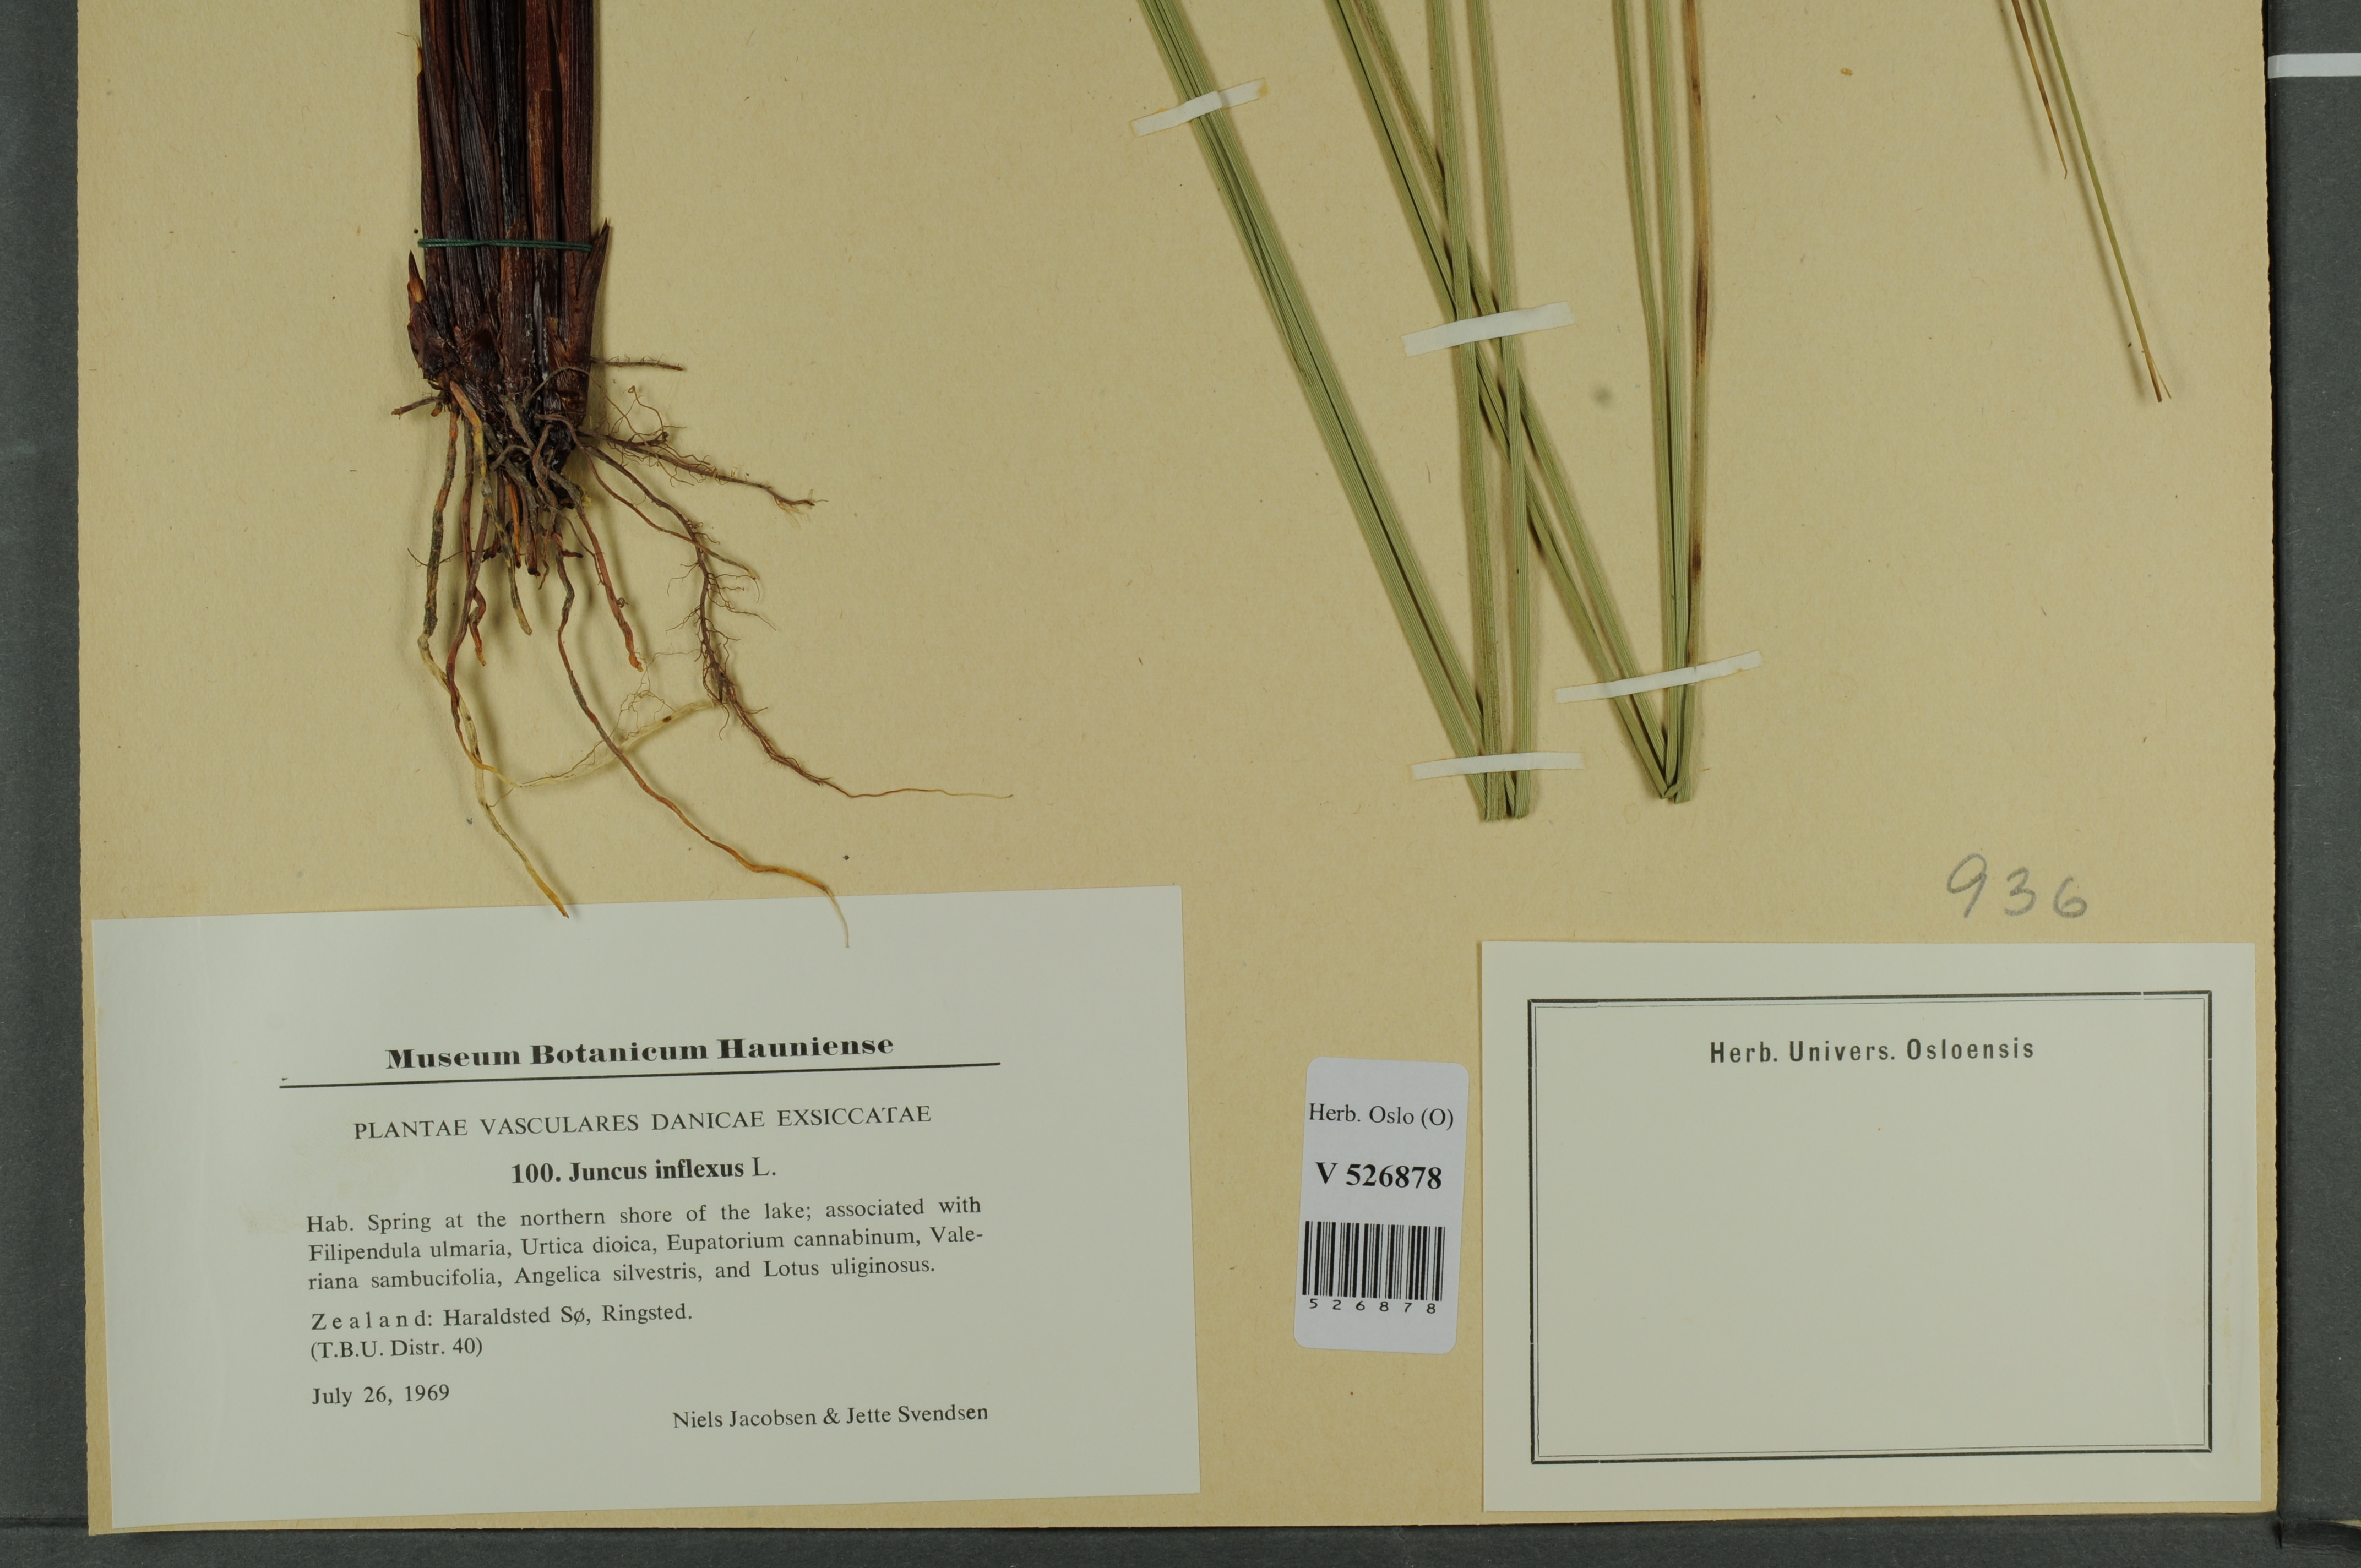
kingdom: Plantae
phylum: Tracheophyta
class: Liliopsida
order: Poales
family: Juncaceae
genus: Juncus
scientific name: Juncus inflexus
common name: Hard rush
